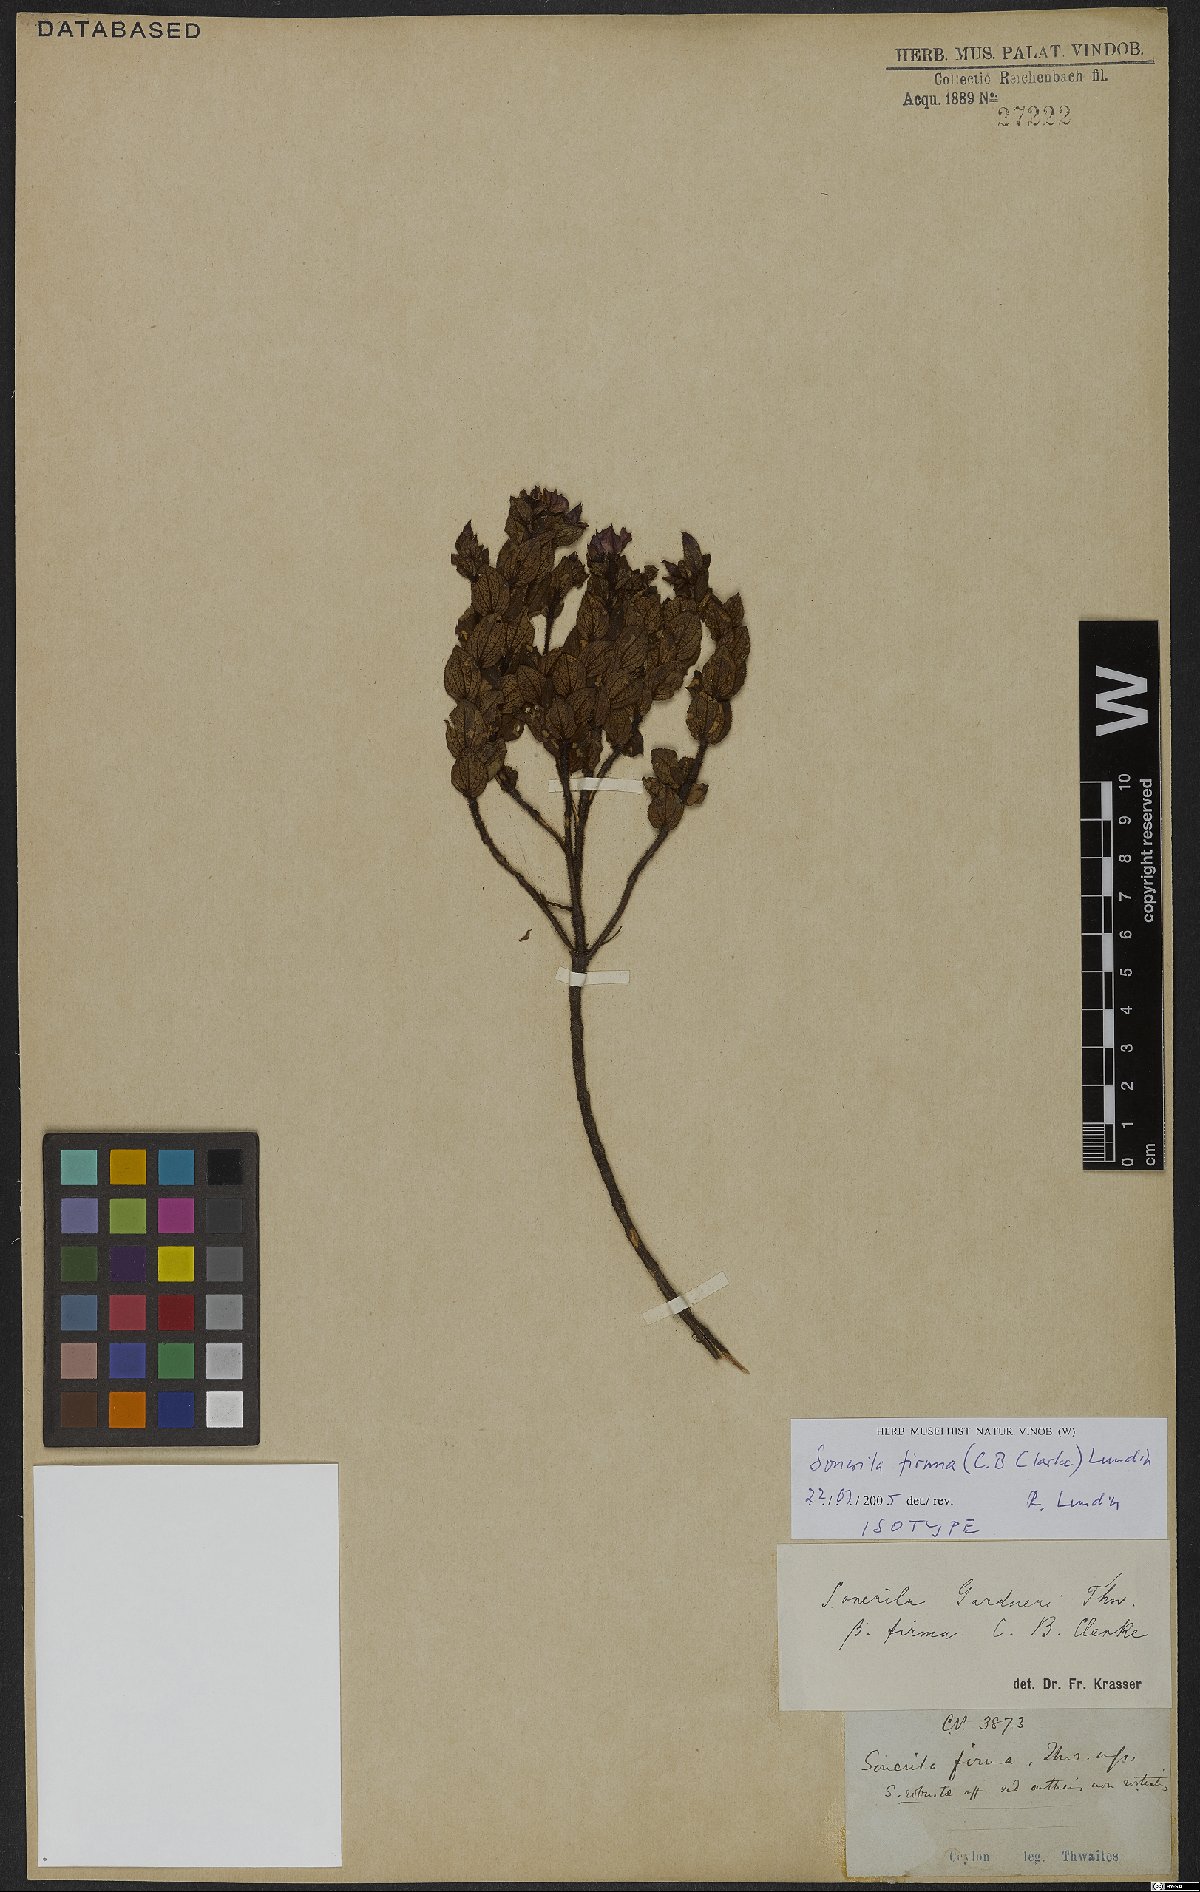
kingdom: Plantae
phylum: Tracheophyta
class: Magnoliopsida
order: Myrtales
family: Melastomataceae
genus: Sonerila
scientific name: Sonerila firma
